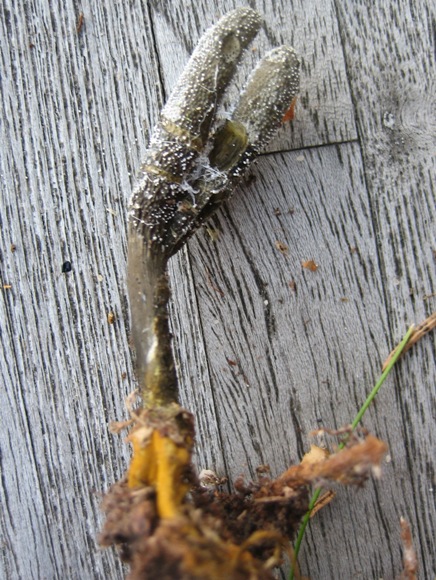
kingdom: Fungi
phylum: Ascomycota
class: Sordariomycetes
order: Hypocreales
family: Ophiocordycipitaceae
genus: Tolypocladium
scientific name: Tolypocladium ophioglossoides
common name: slank snyltekølle
